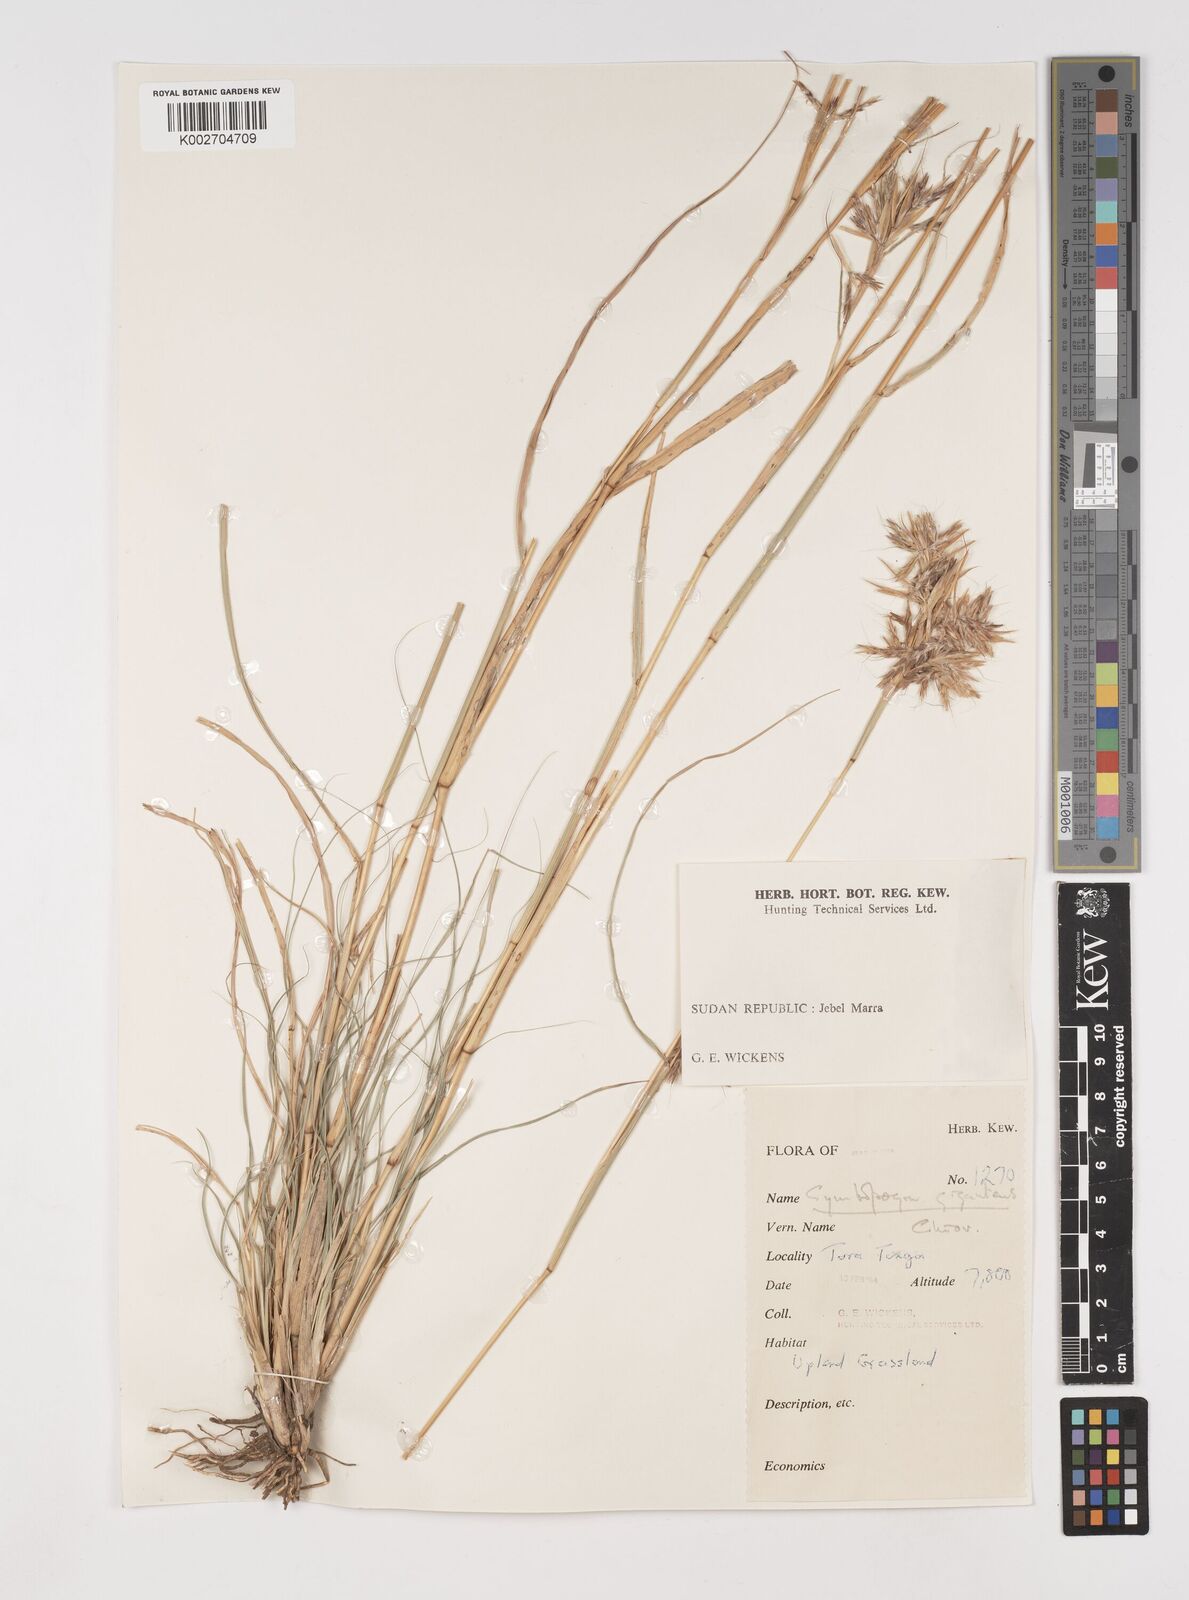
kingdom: Plantae
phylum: Tracheophyta
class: Liliopsida
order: Poales
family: Poaceae
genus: Cymbopogon
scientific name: Cymbopogon
